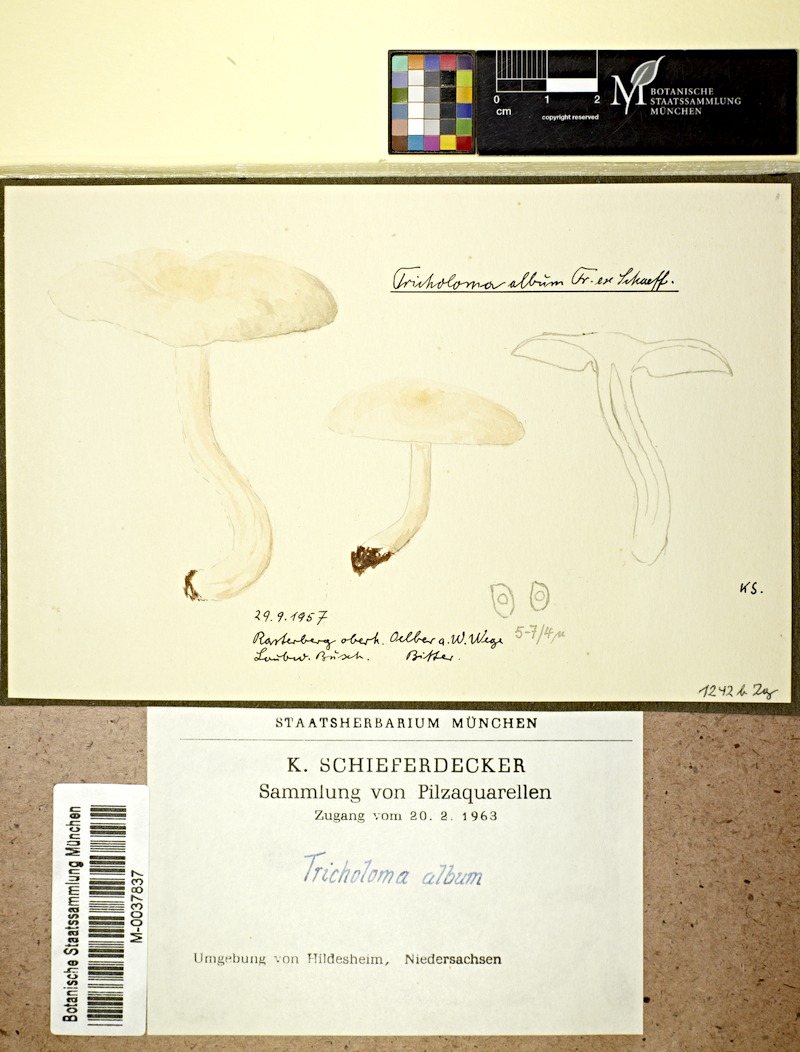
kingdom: Fungi
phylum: Basidiomycota
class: Agaricomycetes
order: Agaricales
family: Tricholomataceae
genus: Tricholoma
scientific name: Tricholoma album
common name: White knight
